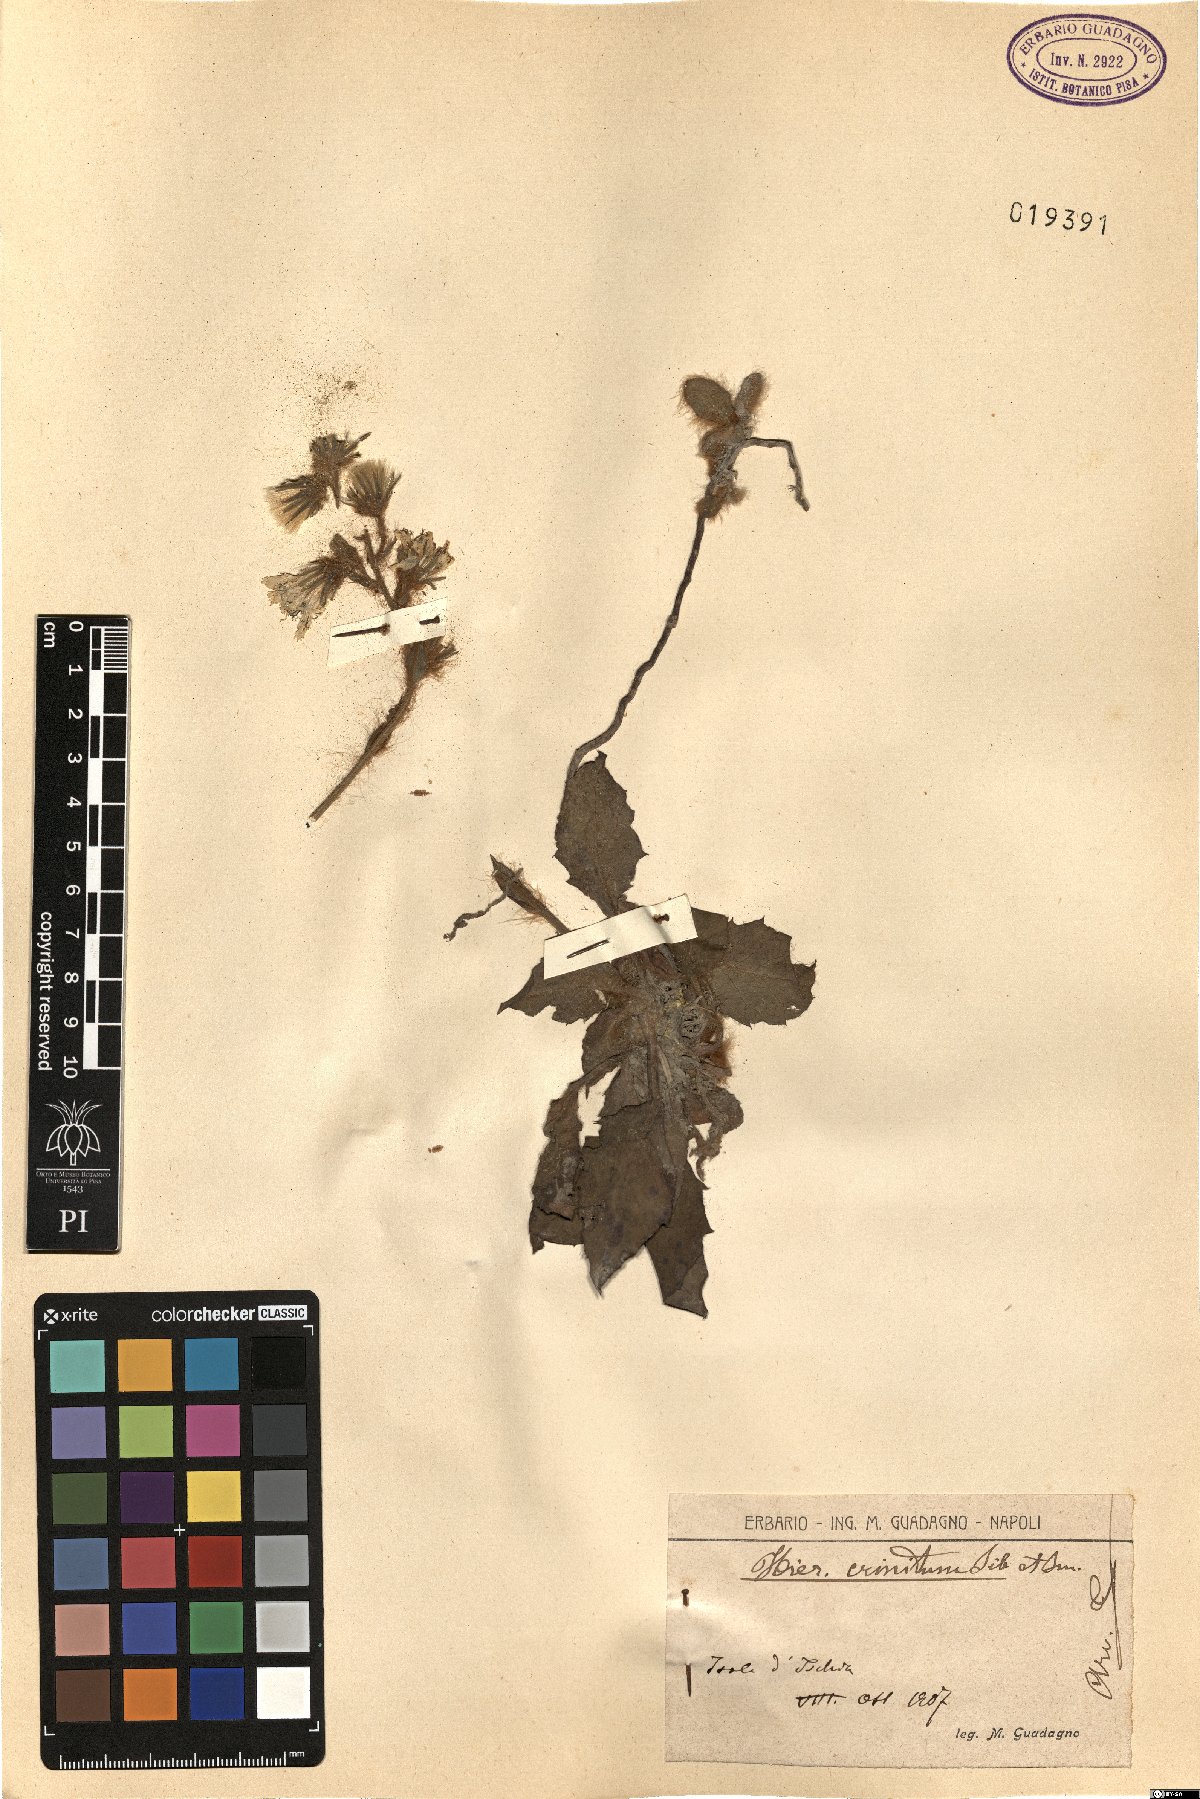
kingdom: Plantae
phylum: Tracheophyta
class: Magnoliopsida
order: Asterales
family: Asteraceae
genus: Hieracium
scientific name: Hieracium racemosum
